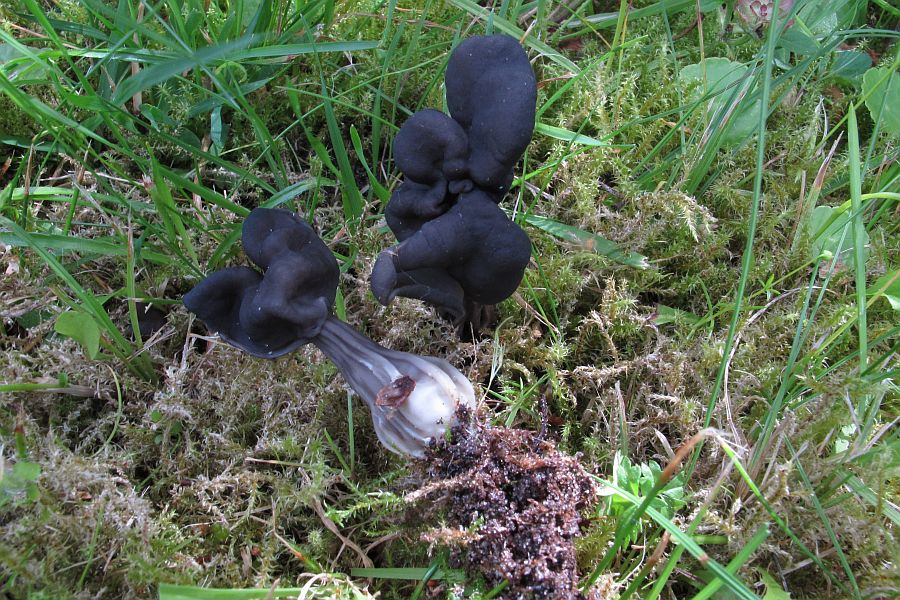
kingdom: Fungi
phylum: Ascomycota
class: Pezizomycetes
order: Pezizales
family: Helvellaceae
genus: Helvella
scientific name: Helvella lacunosa
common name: grubet foldhat
